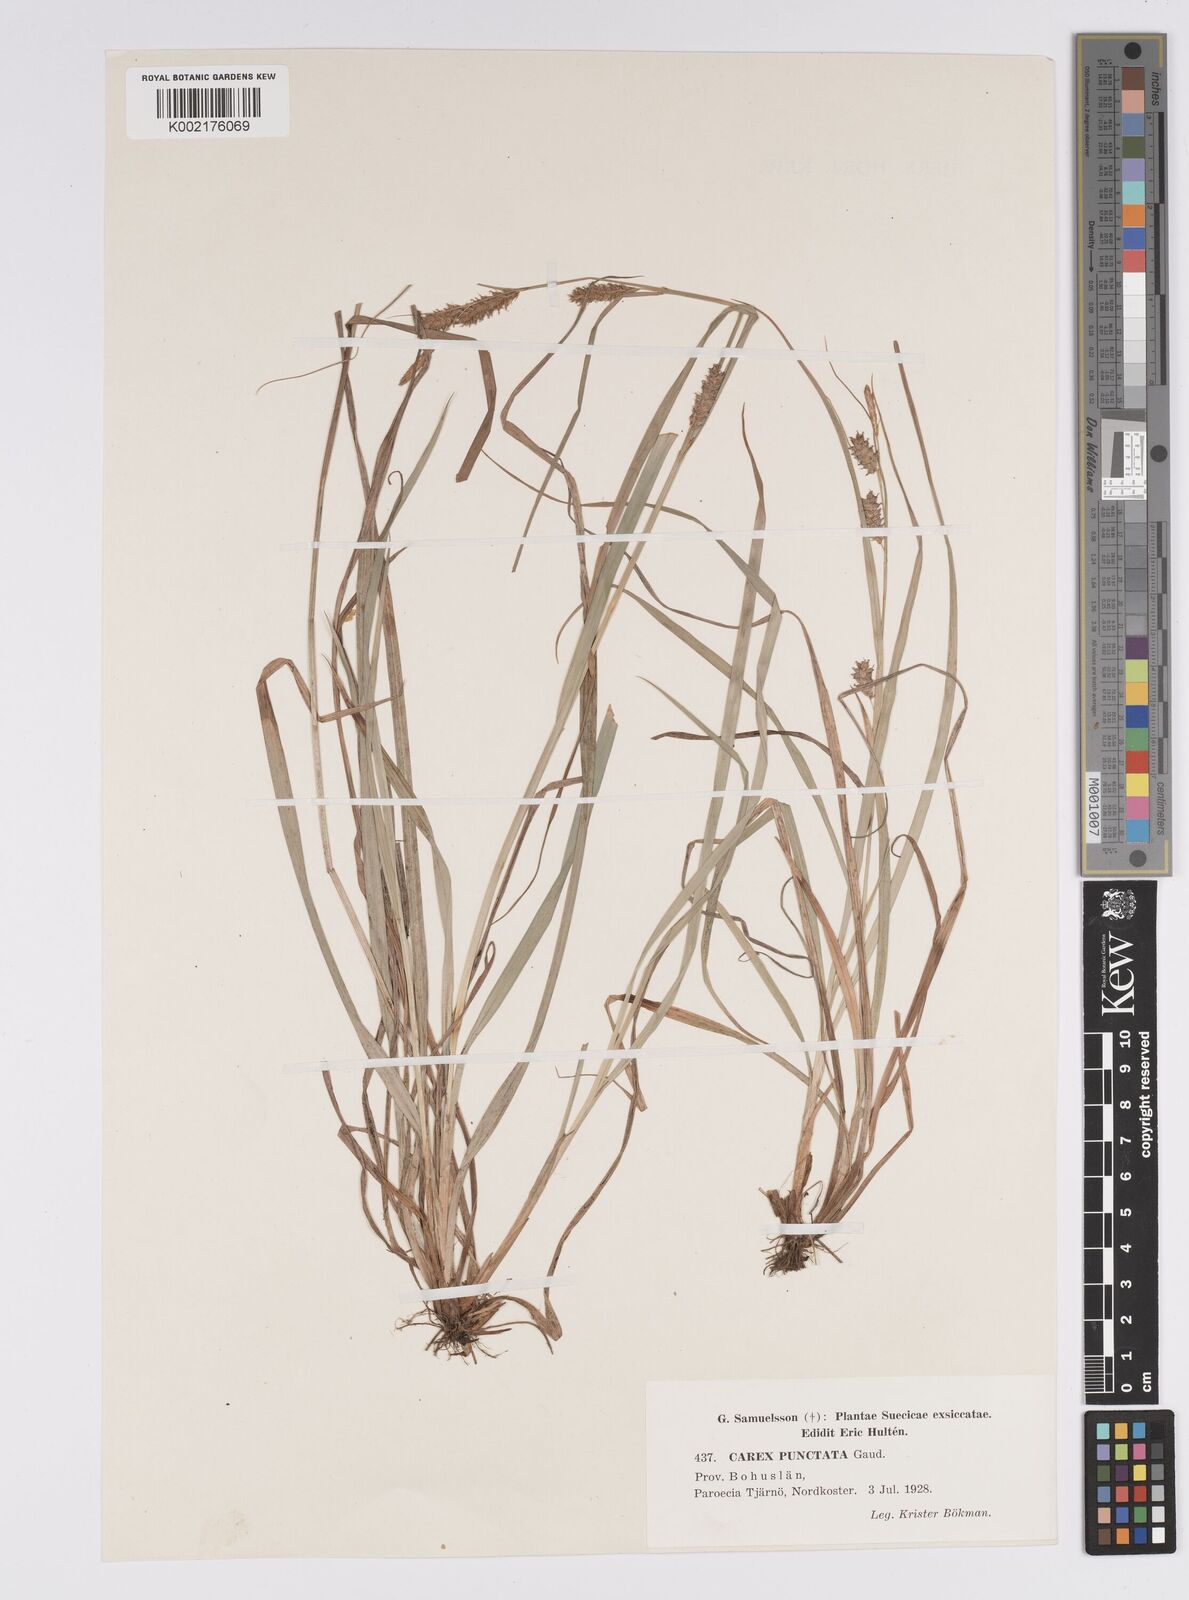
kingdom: Plantae
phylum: Tracheophyta
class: Liliopsida
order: Poales
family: Cyperaceae
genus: Carex
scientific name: Carex punctata
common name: Dotted sedge
